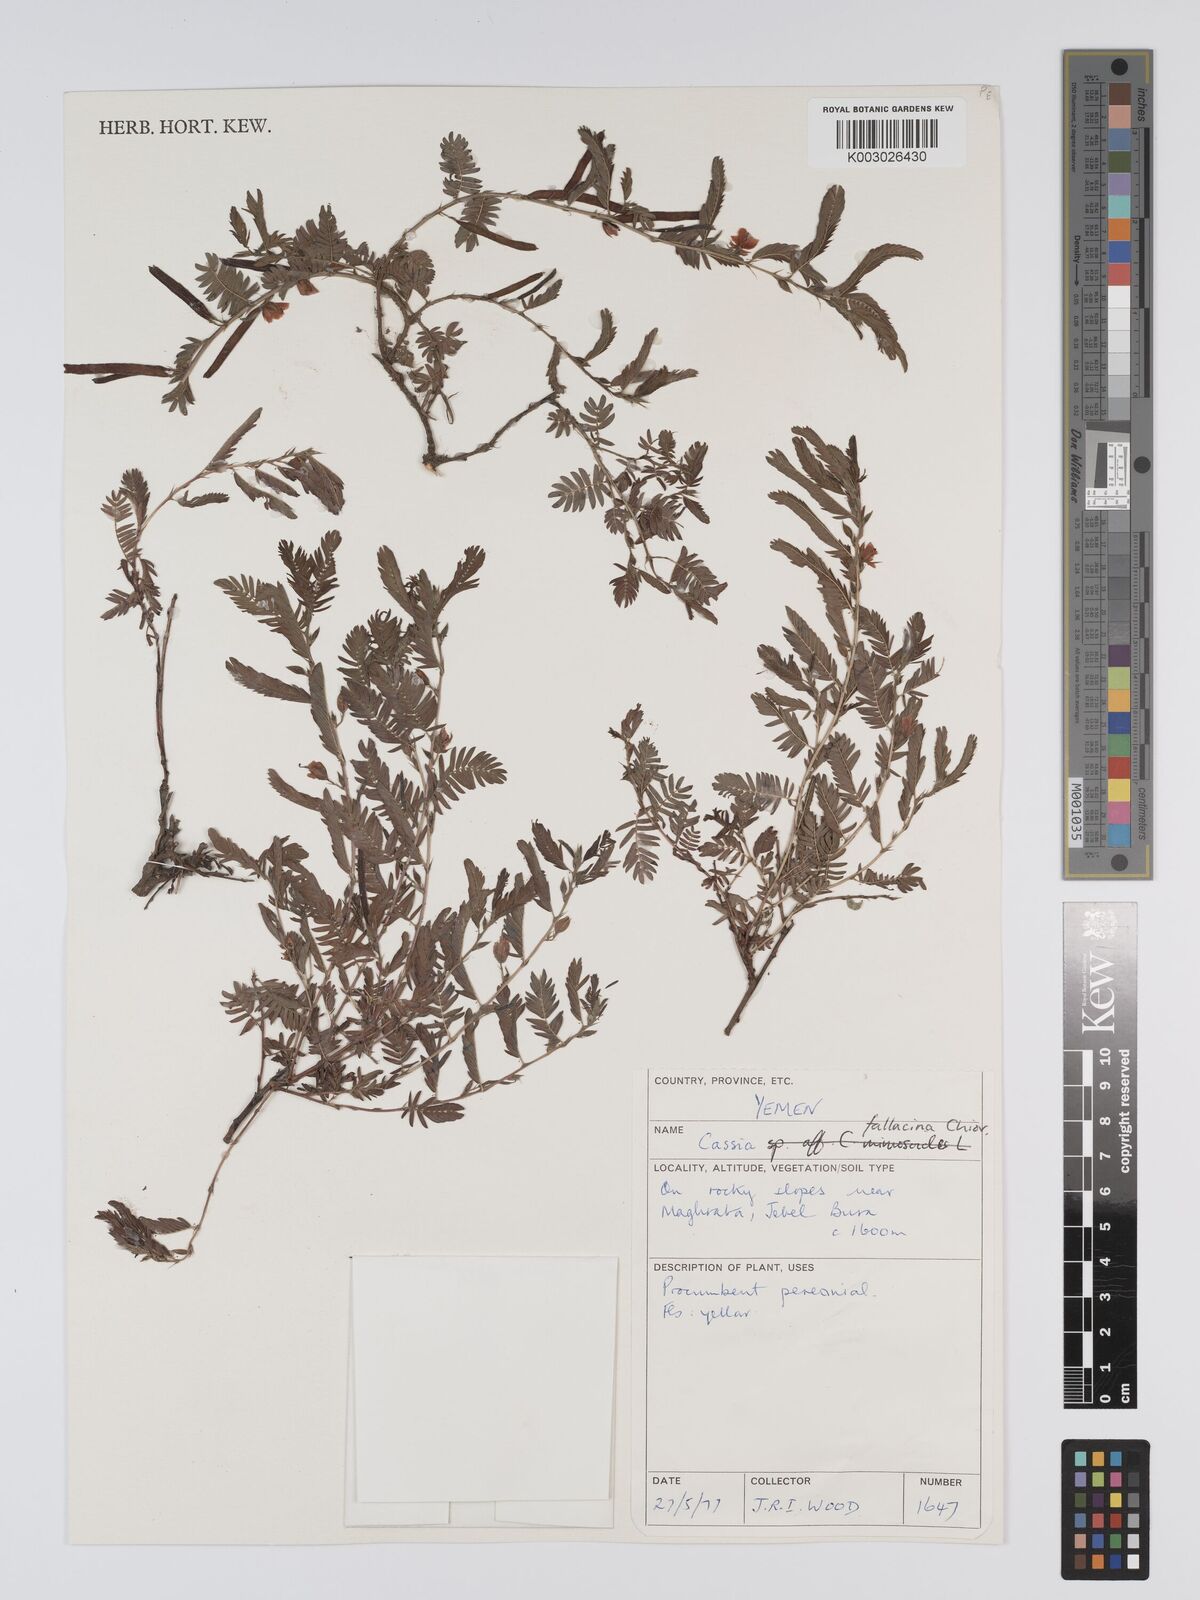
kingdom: Plantae
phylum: Tracheophyta
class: Magnoliopsida
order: Fabales
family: Fabaceae
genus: Chamaecrista
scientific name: Chamaecrista fallacina
